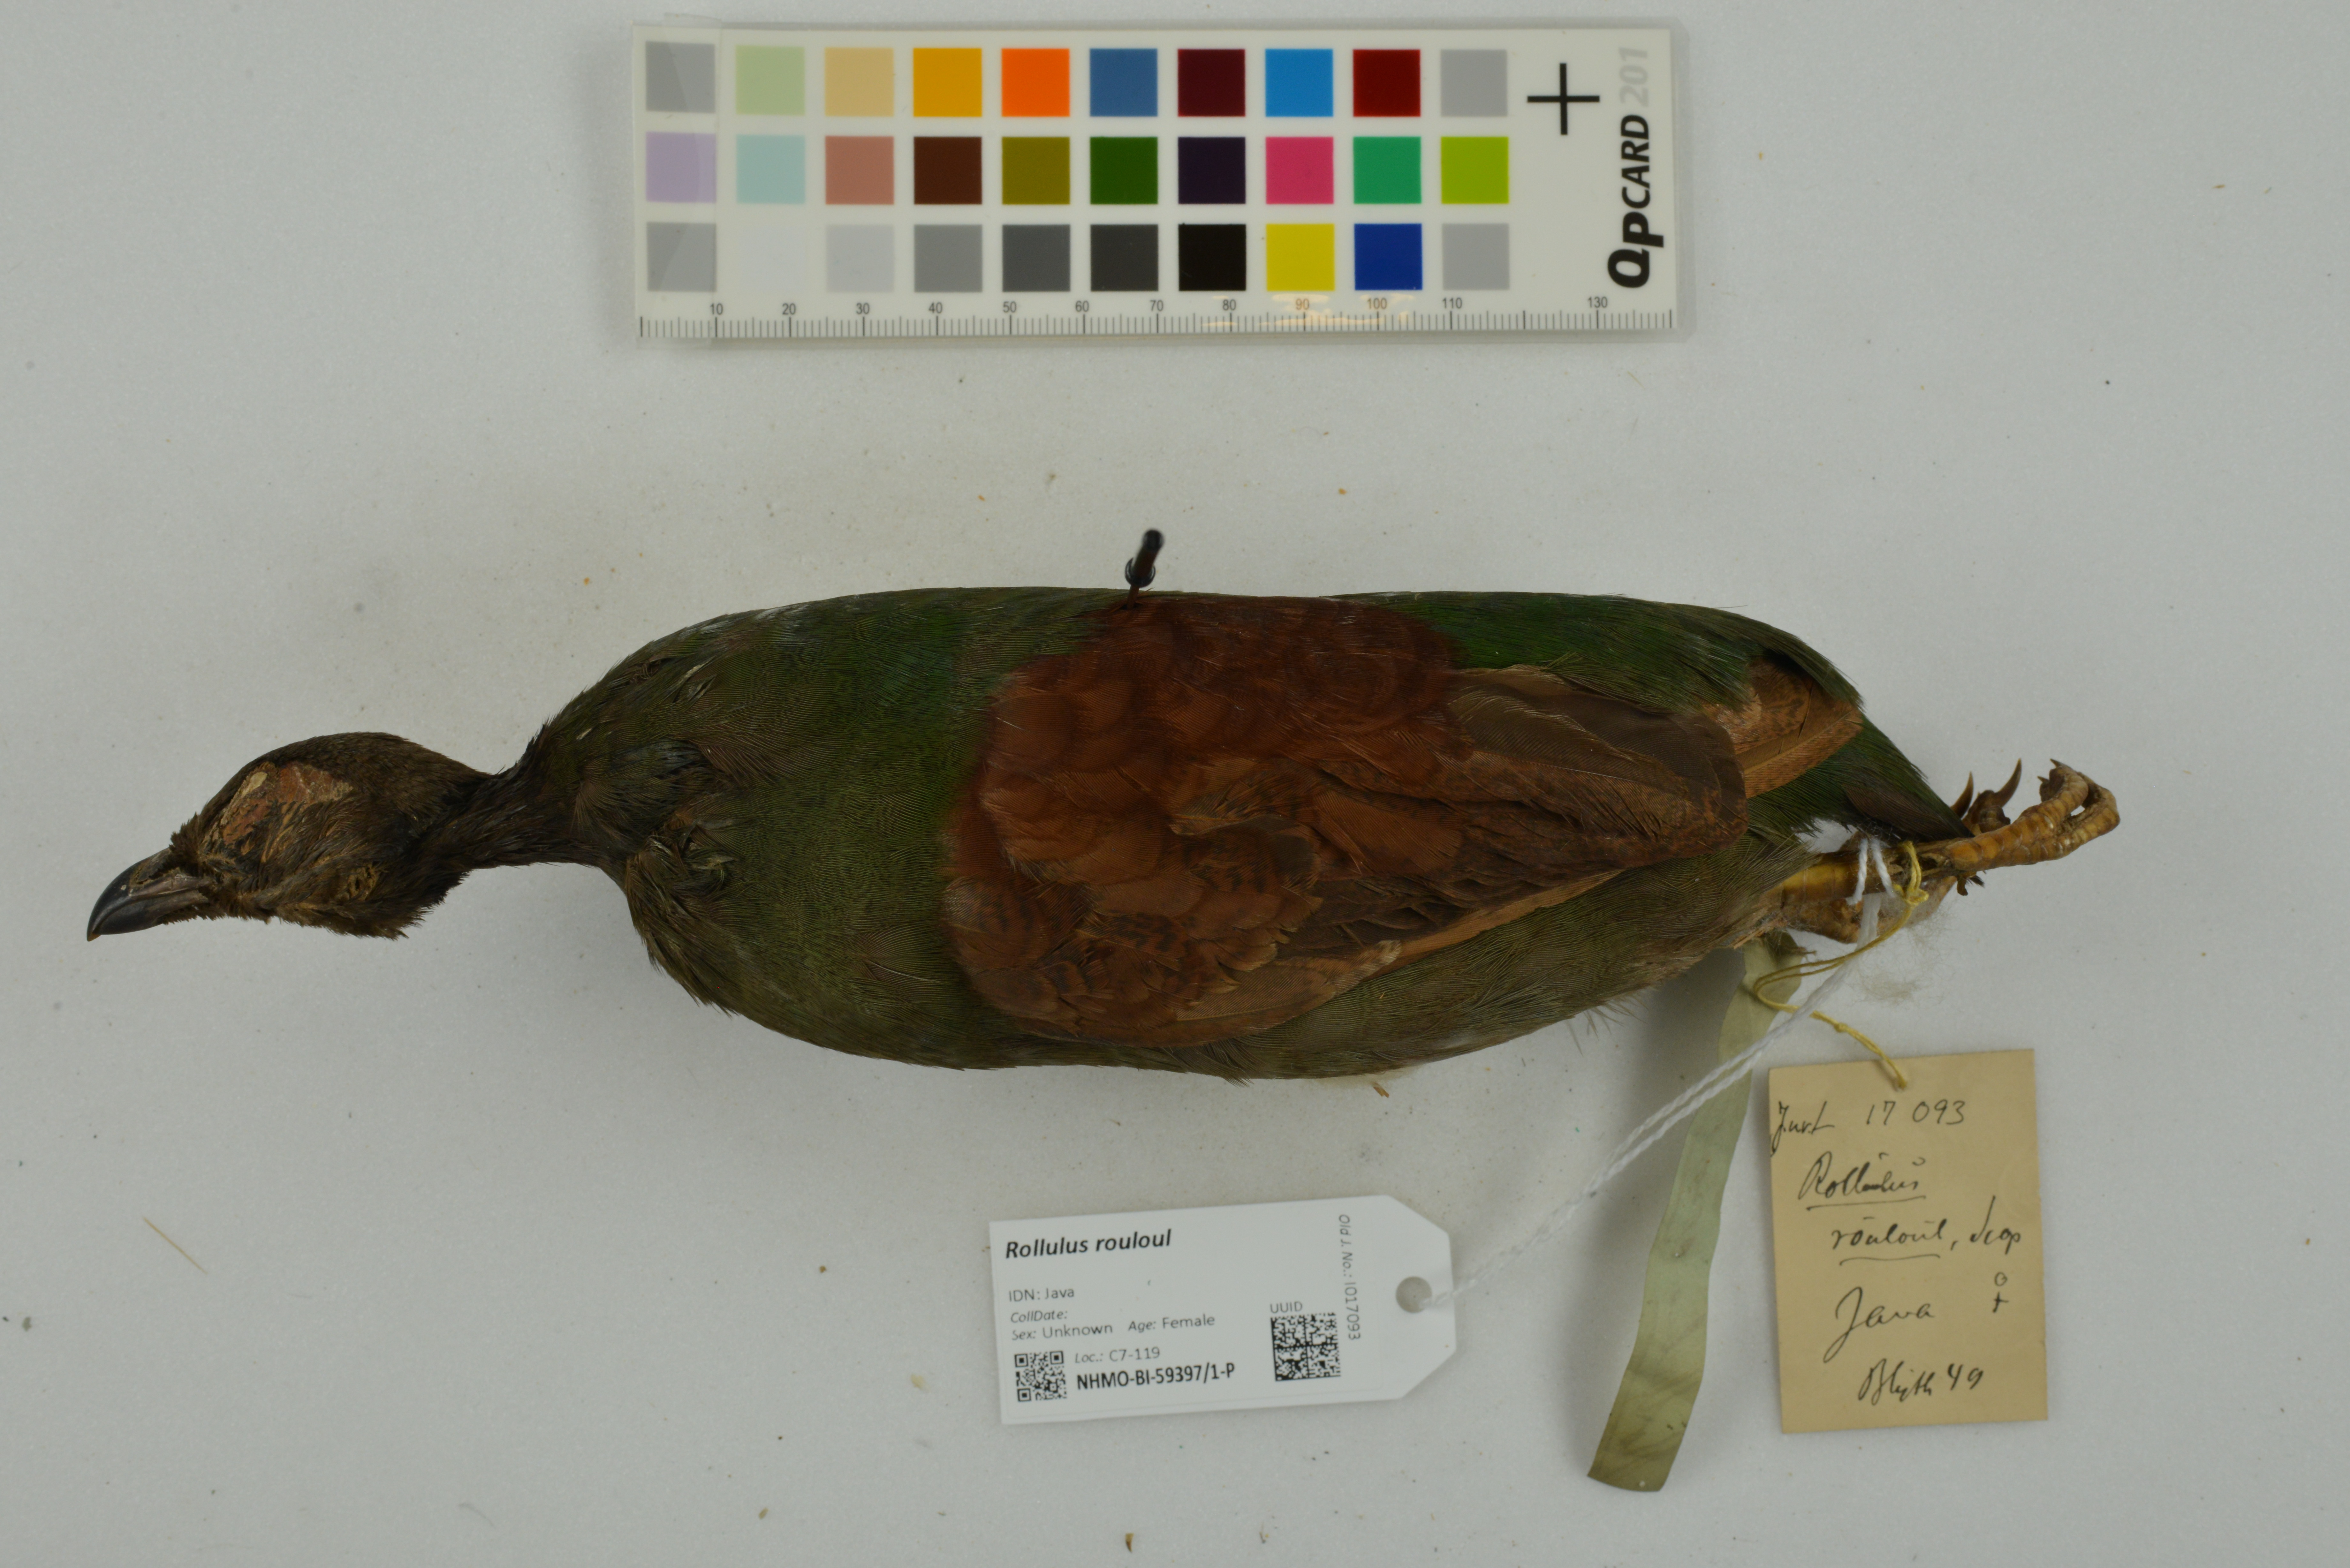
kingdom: Animalia
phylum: Chordata
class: Aves
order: Galliformes
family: Phasianidae
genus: Rollulus
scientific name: Rollulus rouloul
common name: Crested partridge
